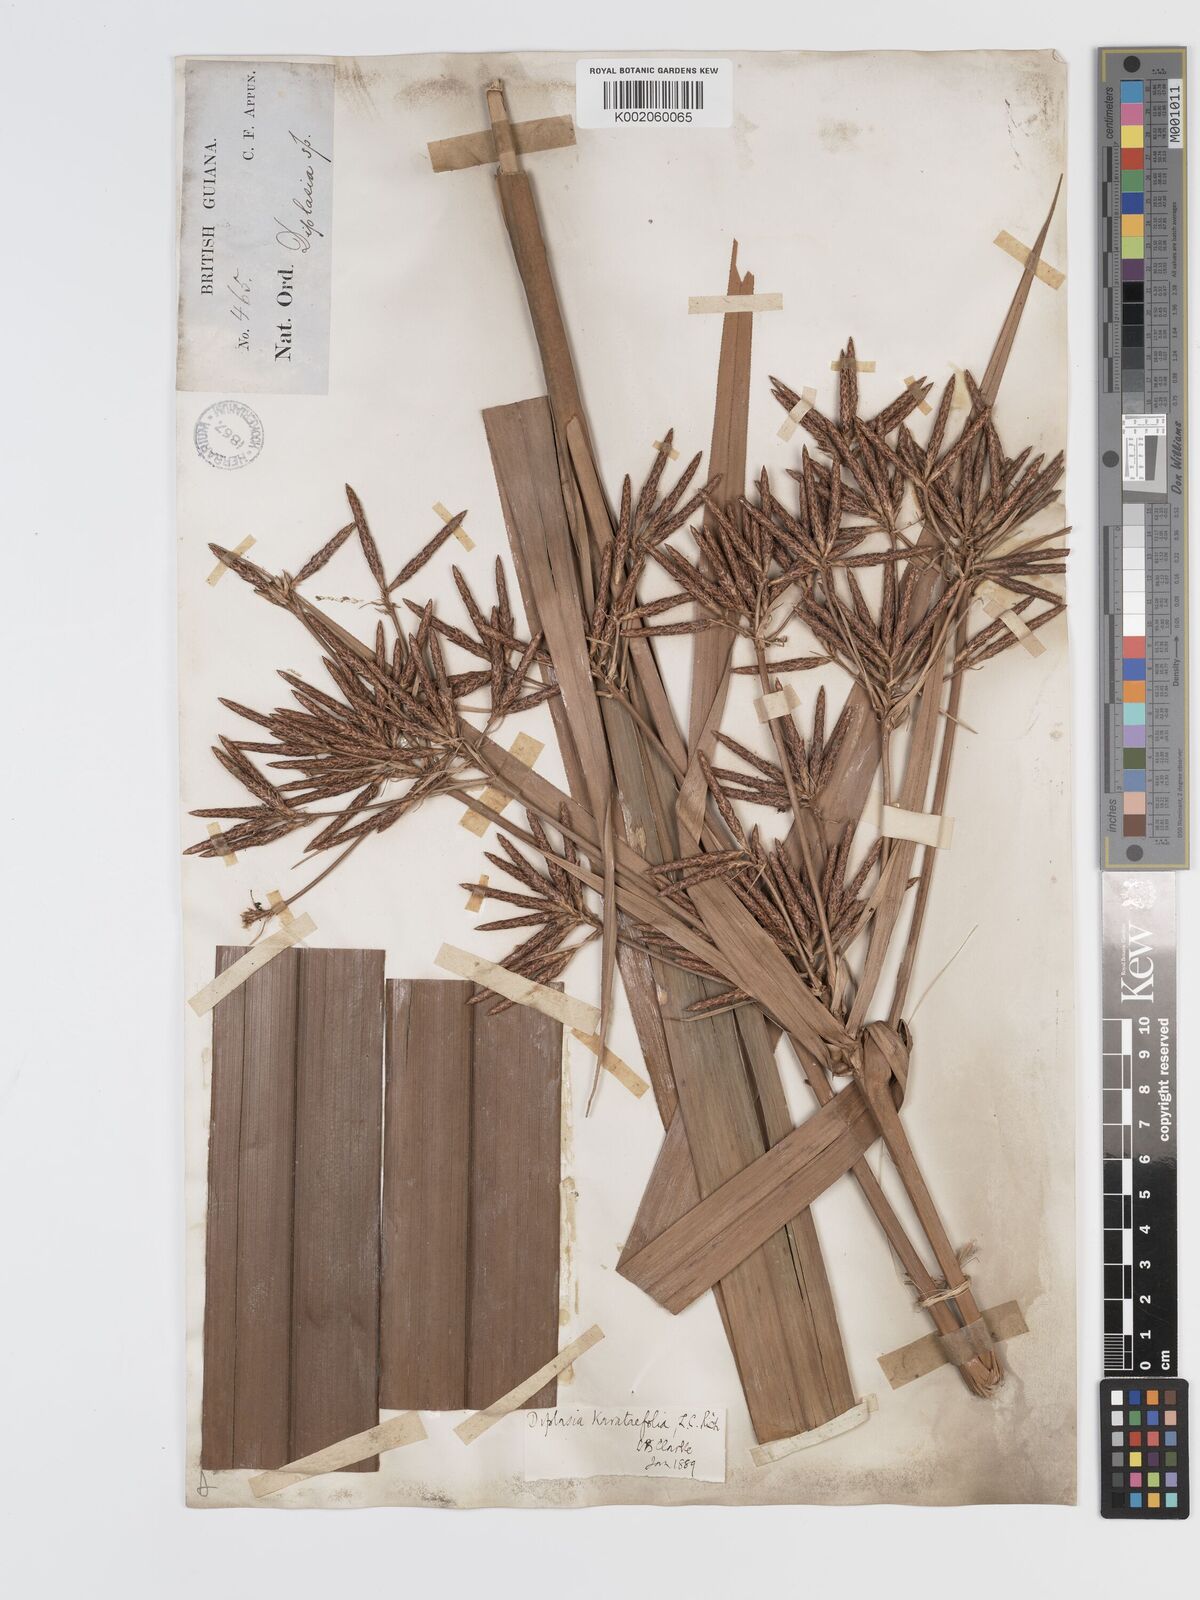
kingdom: Plantae
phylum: Tracheophyta
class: Liliopsida
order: Poales
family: Cyperaceae
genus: Diplasia
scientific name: Diplasia karatifolia
